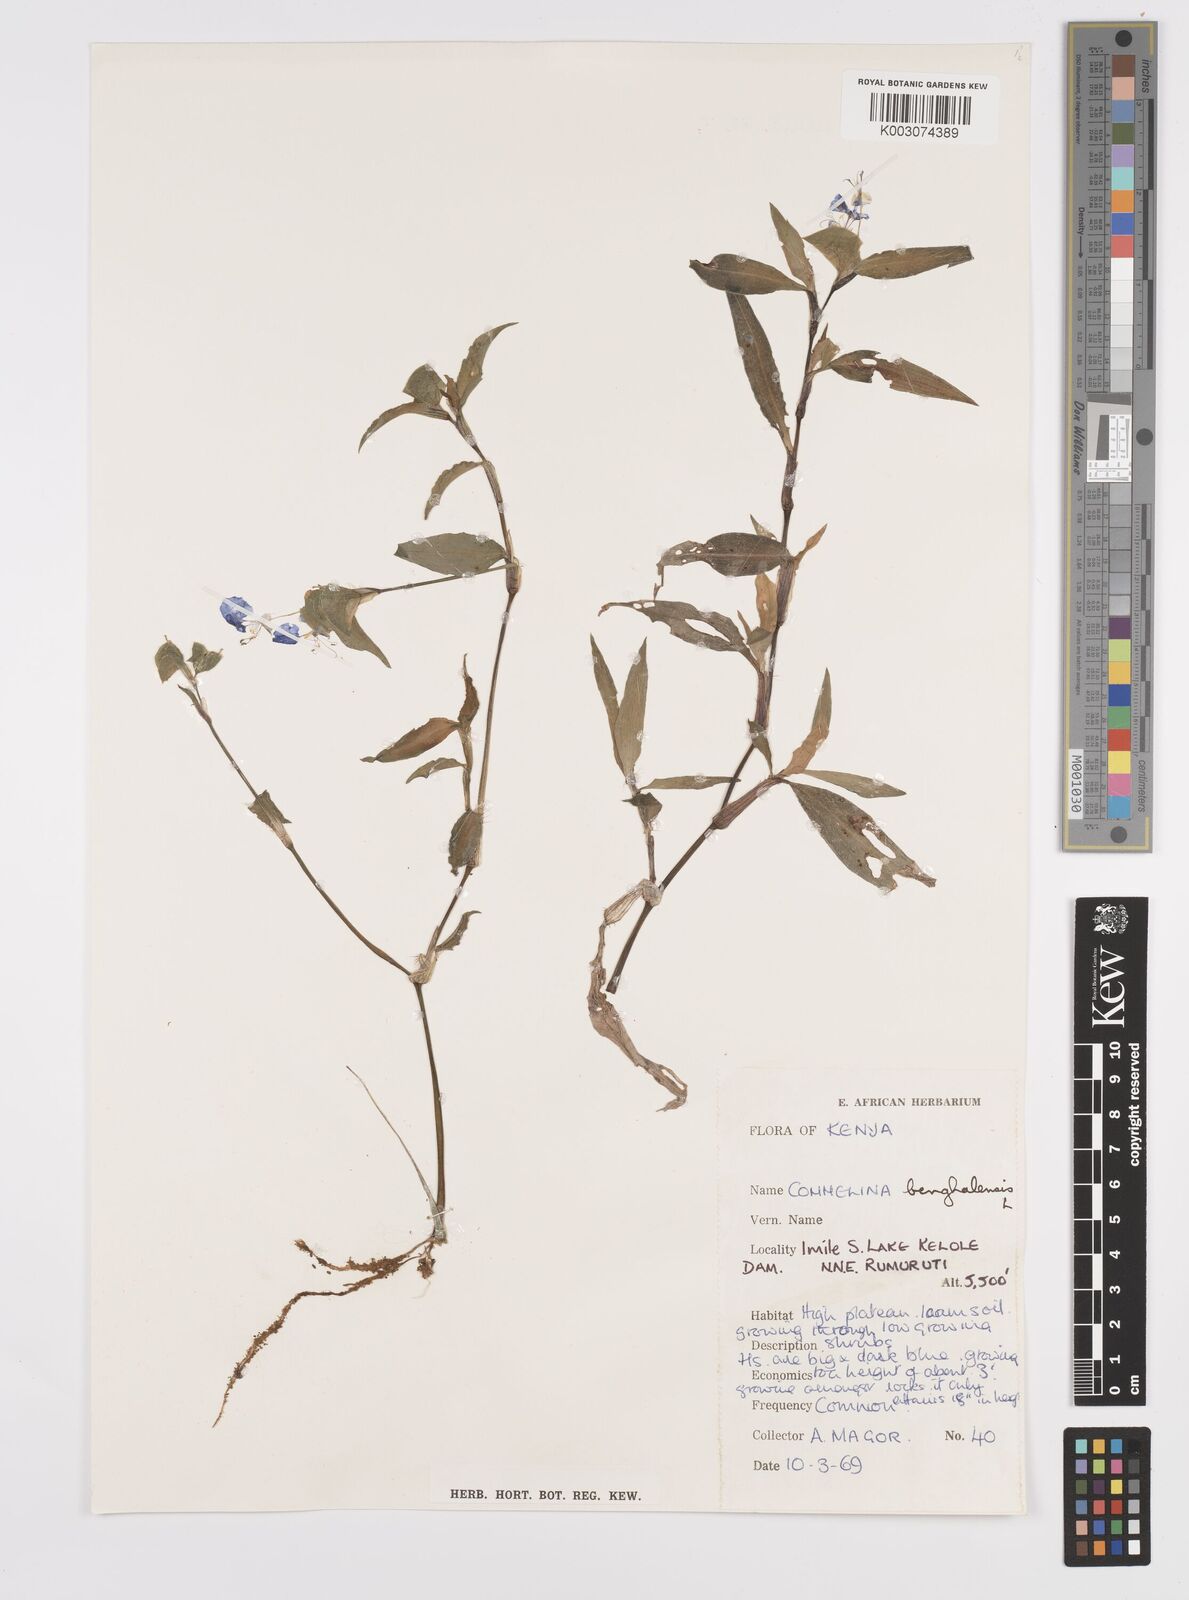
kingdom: Plantae
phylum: Tracheophyta
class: Liliopsida
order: Commelinales
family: Commelinaceae
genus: Commelina
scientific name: Commelina benghalensis
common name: Jio
